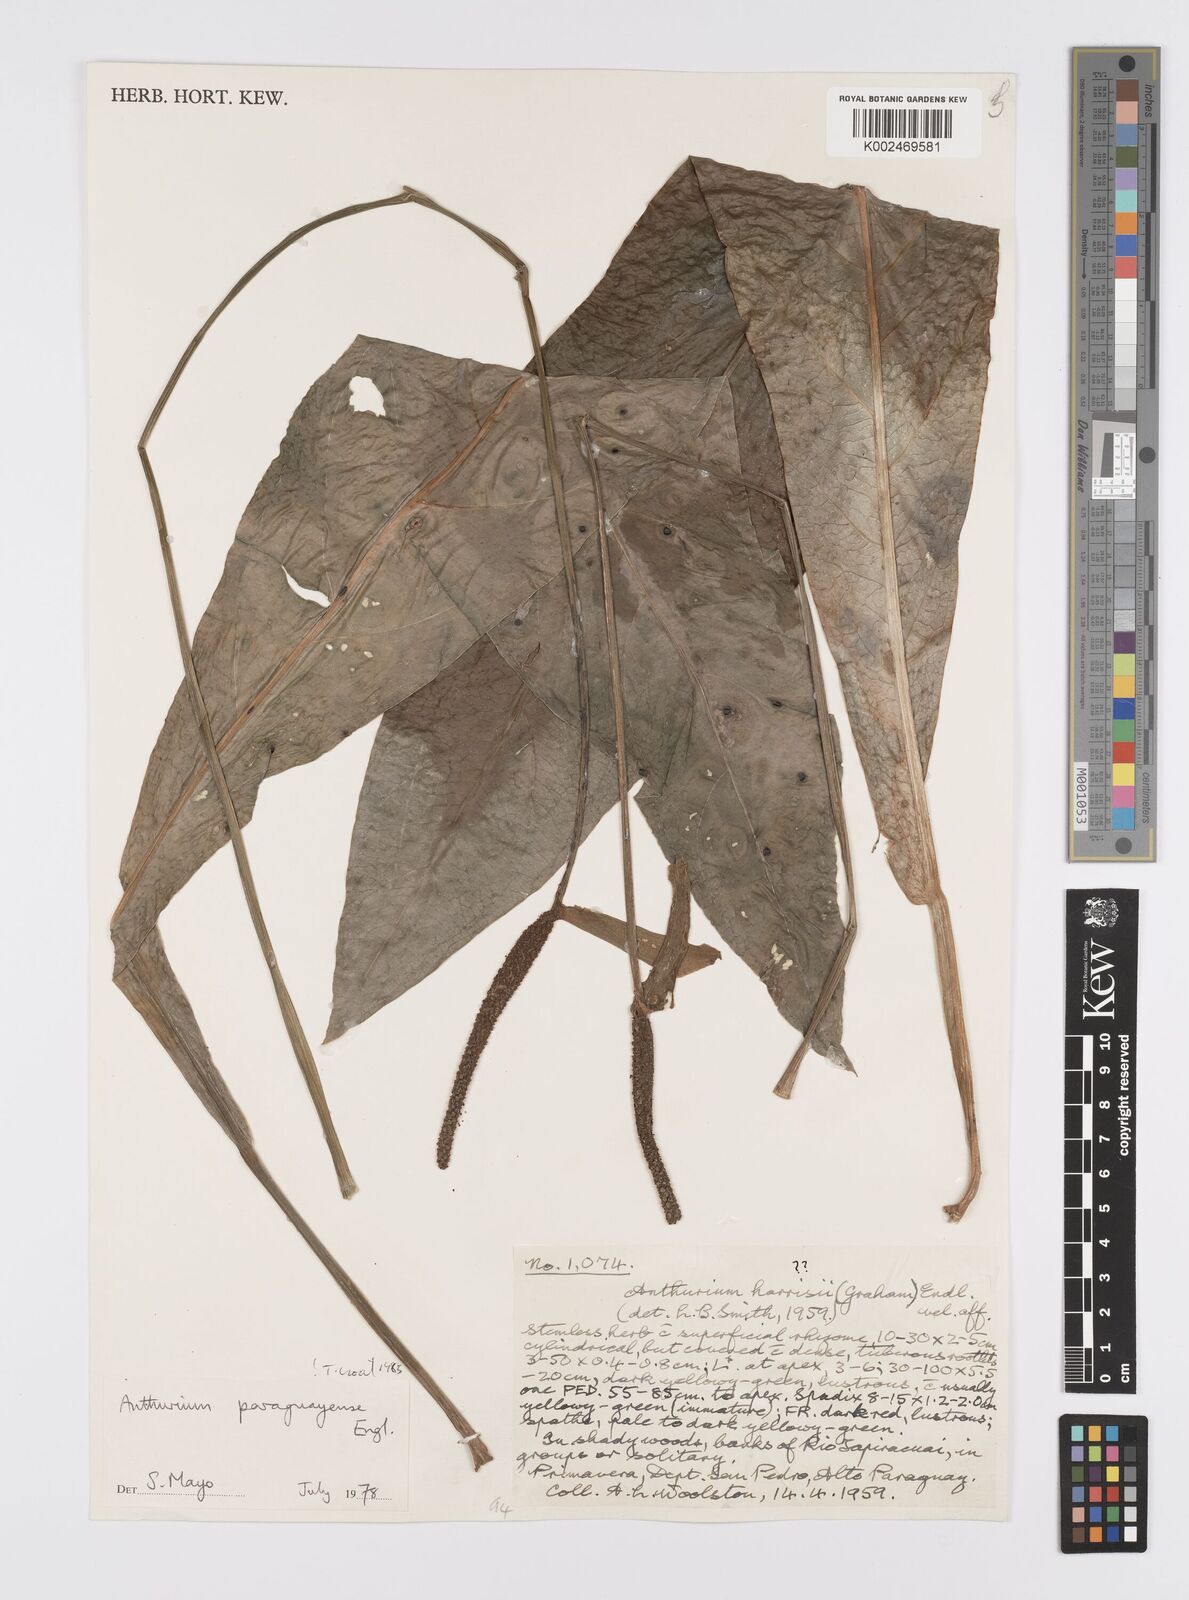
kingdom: Plantae
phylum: Tracheophyta
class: Liliopsida
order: Alismatales
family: Araceae
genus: Anthurium
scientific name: Anthurium paraguayense
